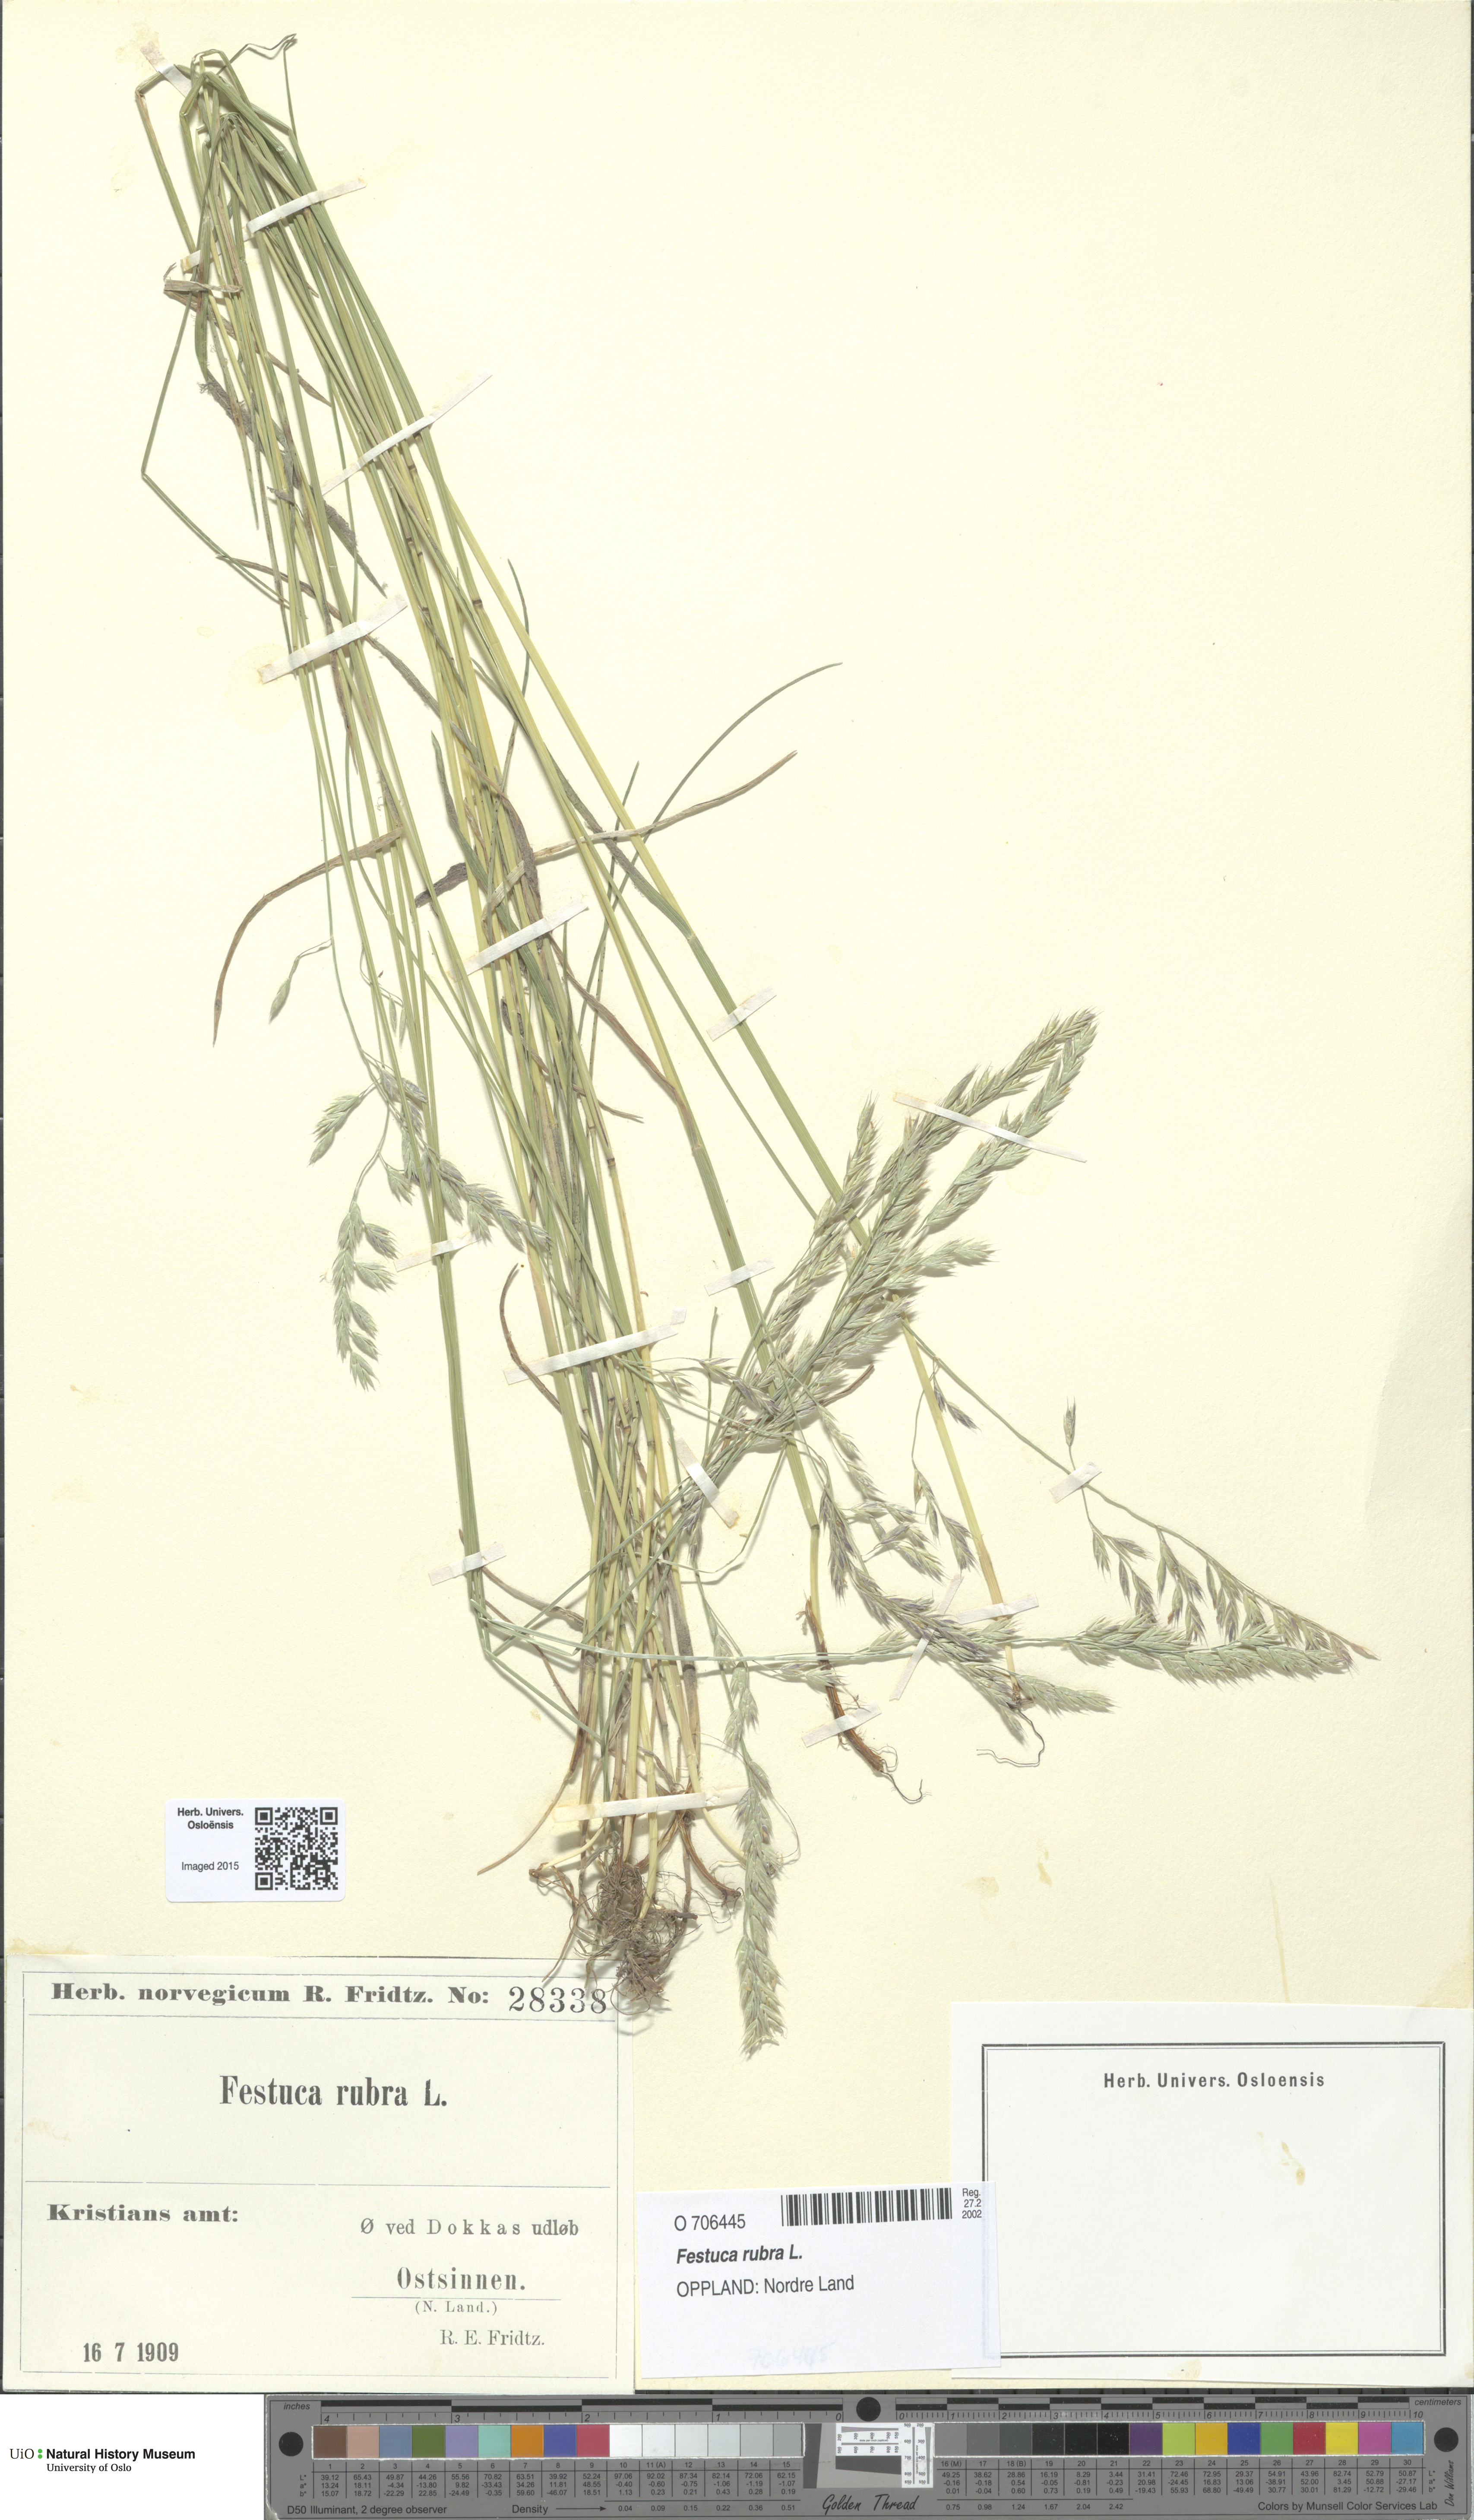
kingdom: Plantae
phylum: Tracheophyta
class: Liliopsida
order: Poales
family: Poaceae
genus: Festuca
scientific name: Festuca rubra
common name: Red fescue
